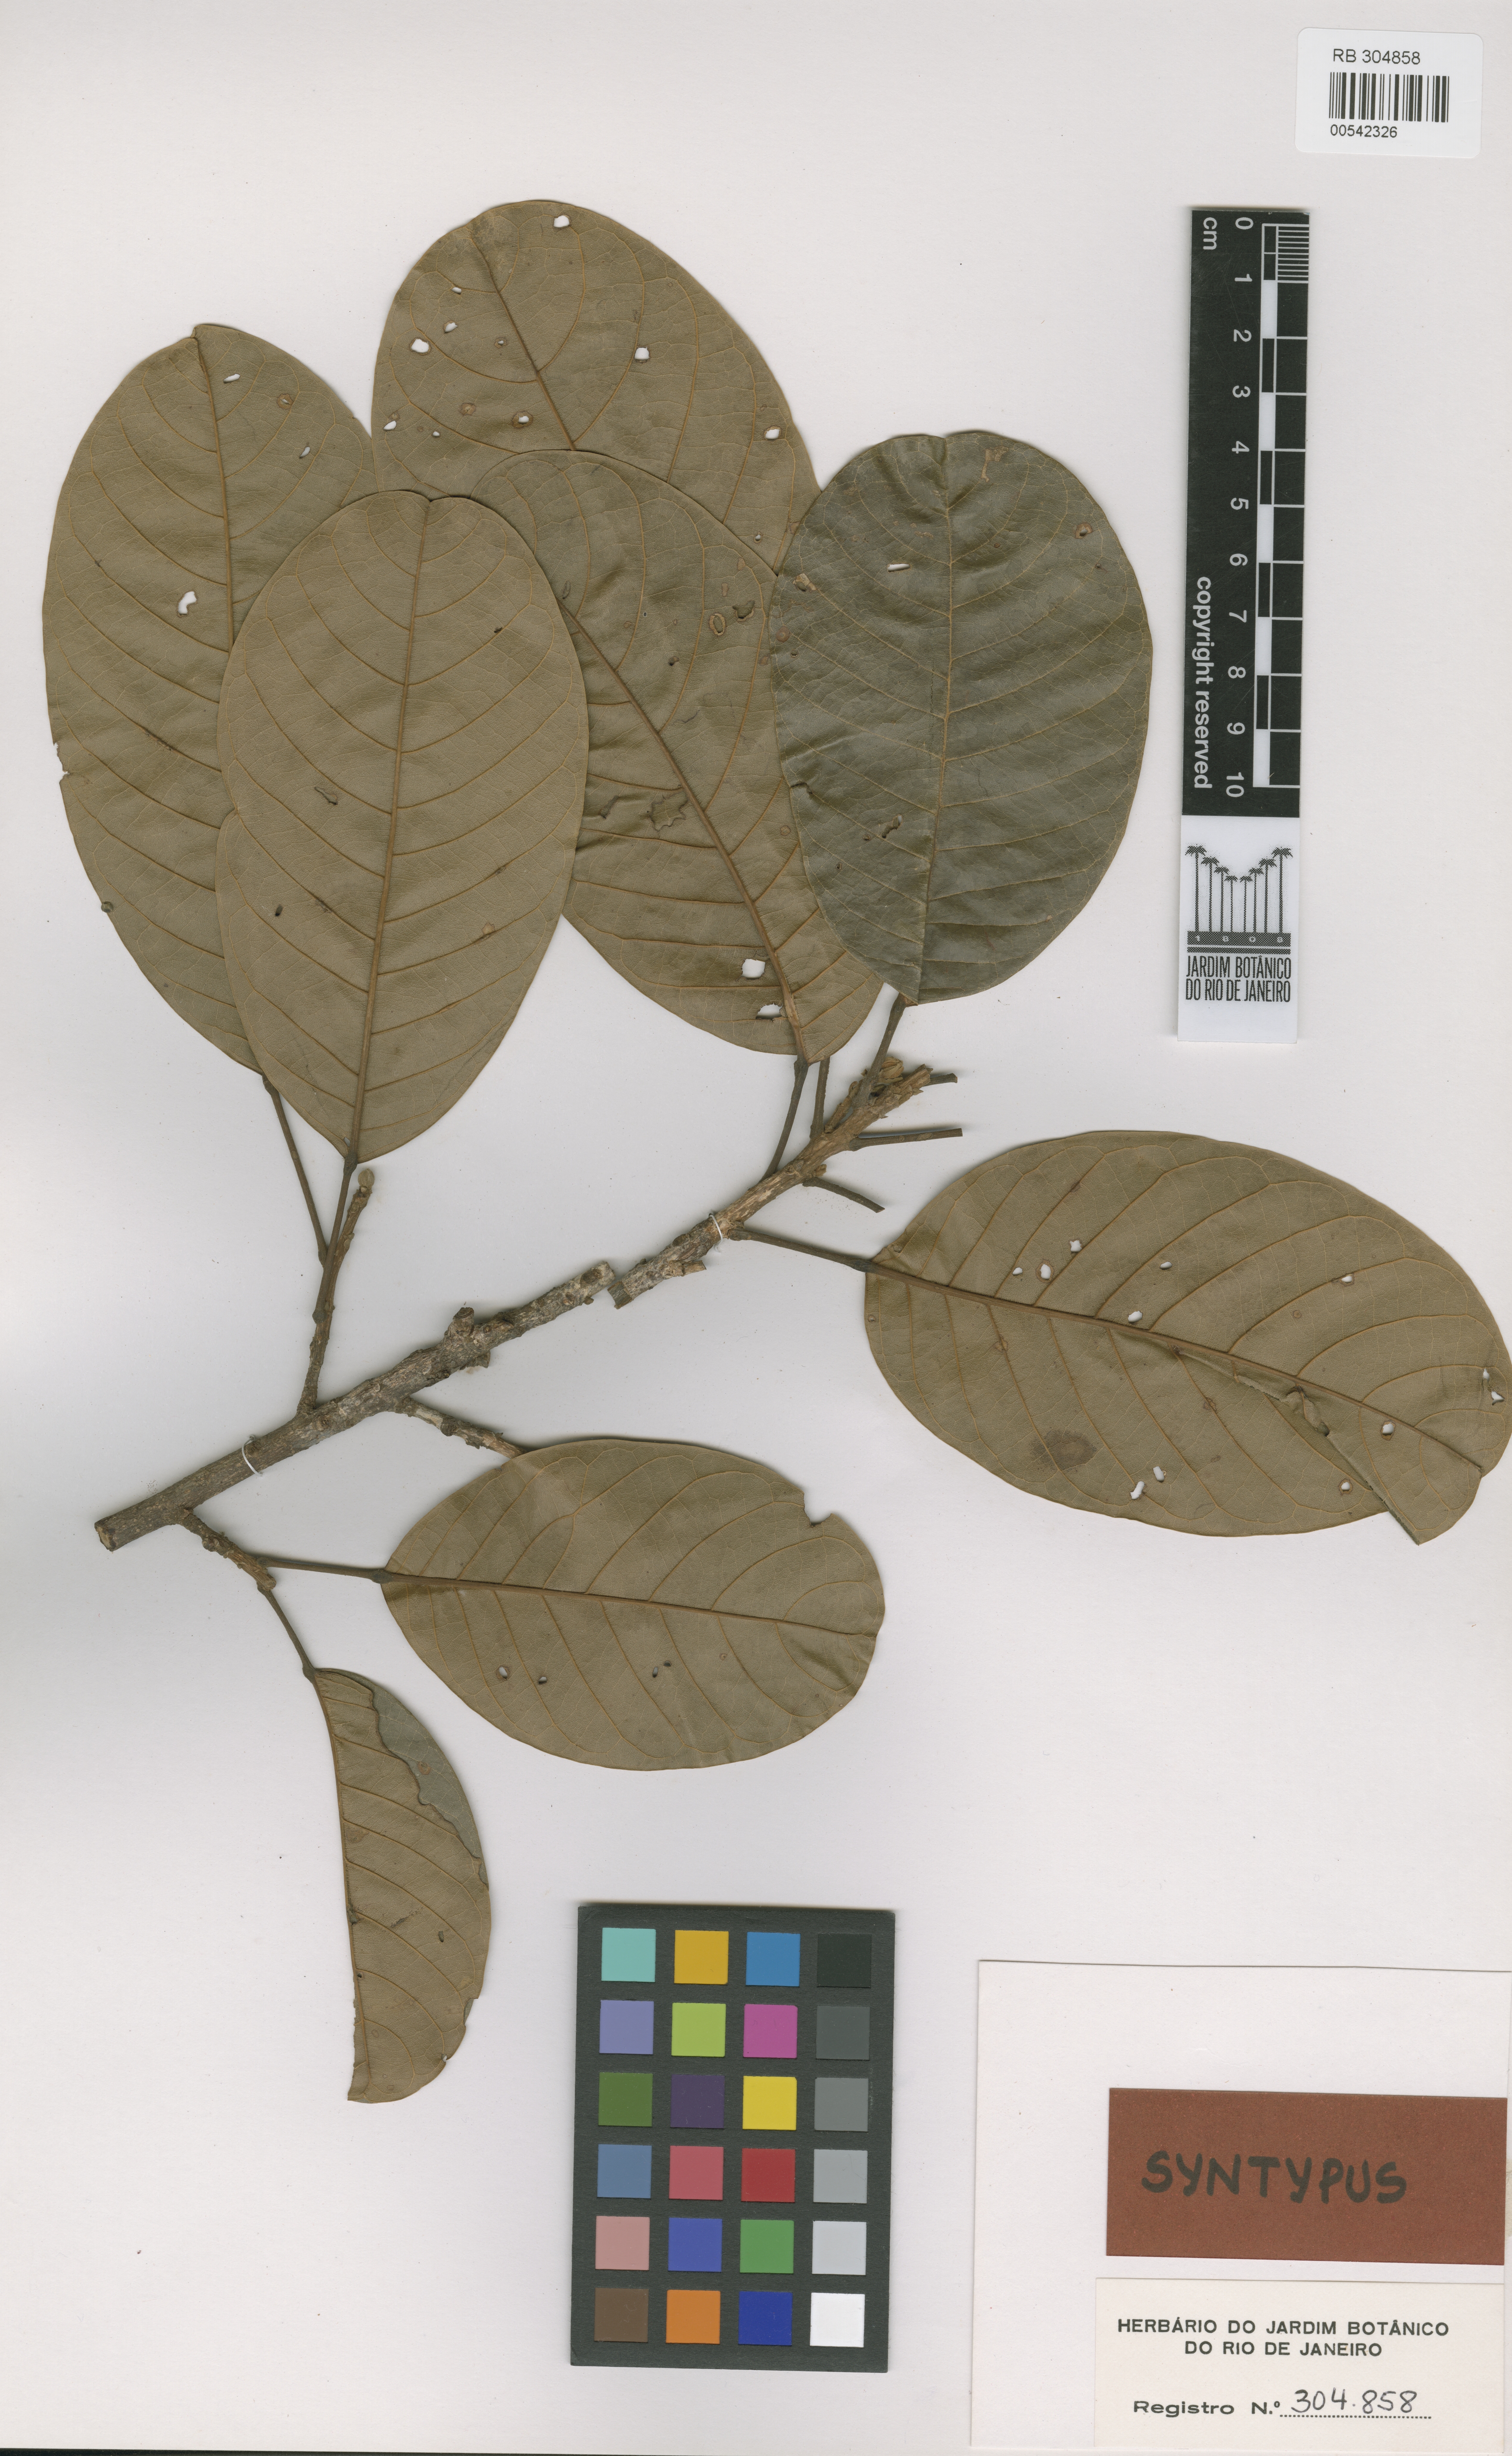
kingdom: Plantae
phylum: Tracheophyta
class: Magnoliopsida
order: Oxalidales
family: Elaeocarpaceae
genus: Sloanea
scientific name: Sloanea brachytepala
